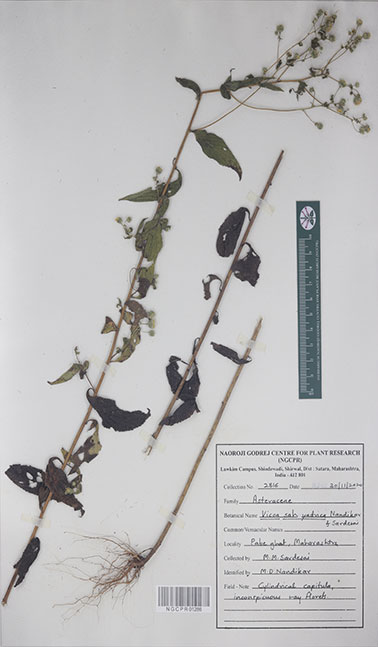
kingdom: Plantae
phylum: Tracheophyta
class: Magnoliopsida
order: Asterales
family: Asteraceae
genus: Vicoa
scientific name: Vicoa sahyadrica
